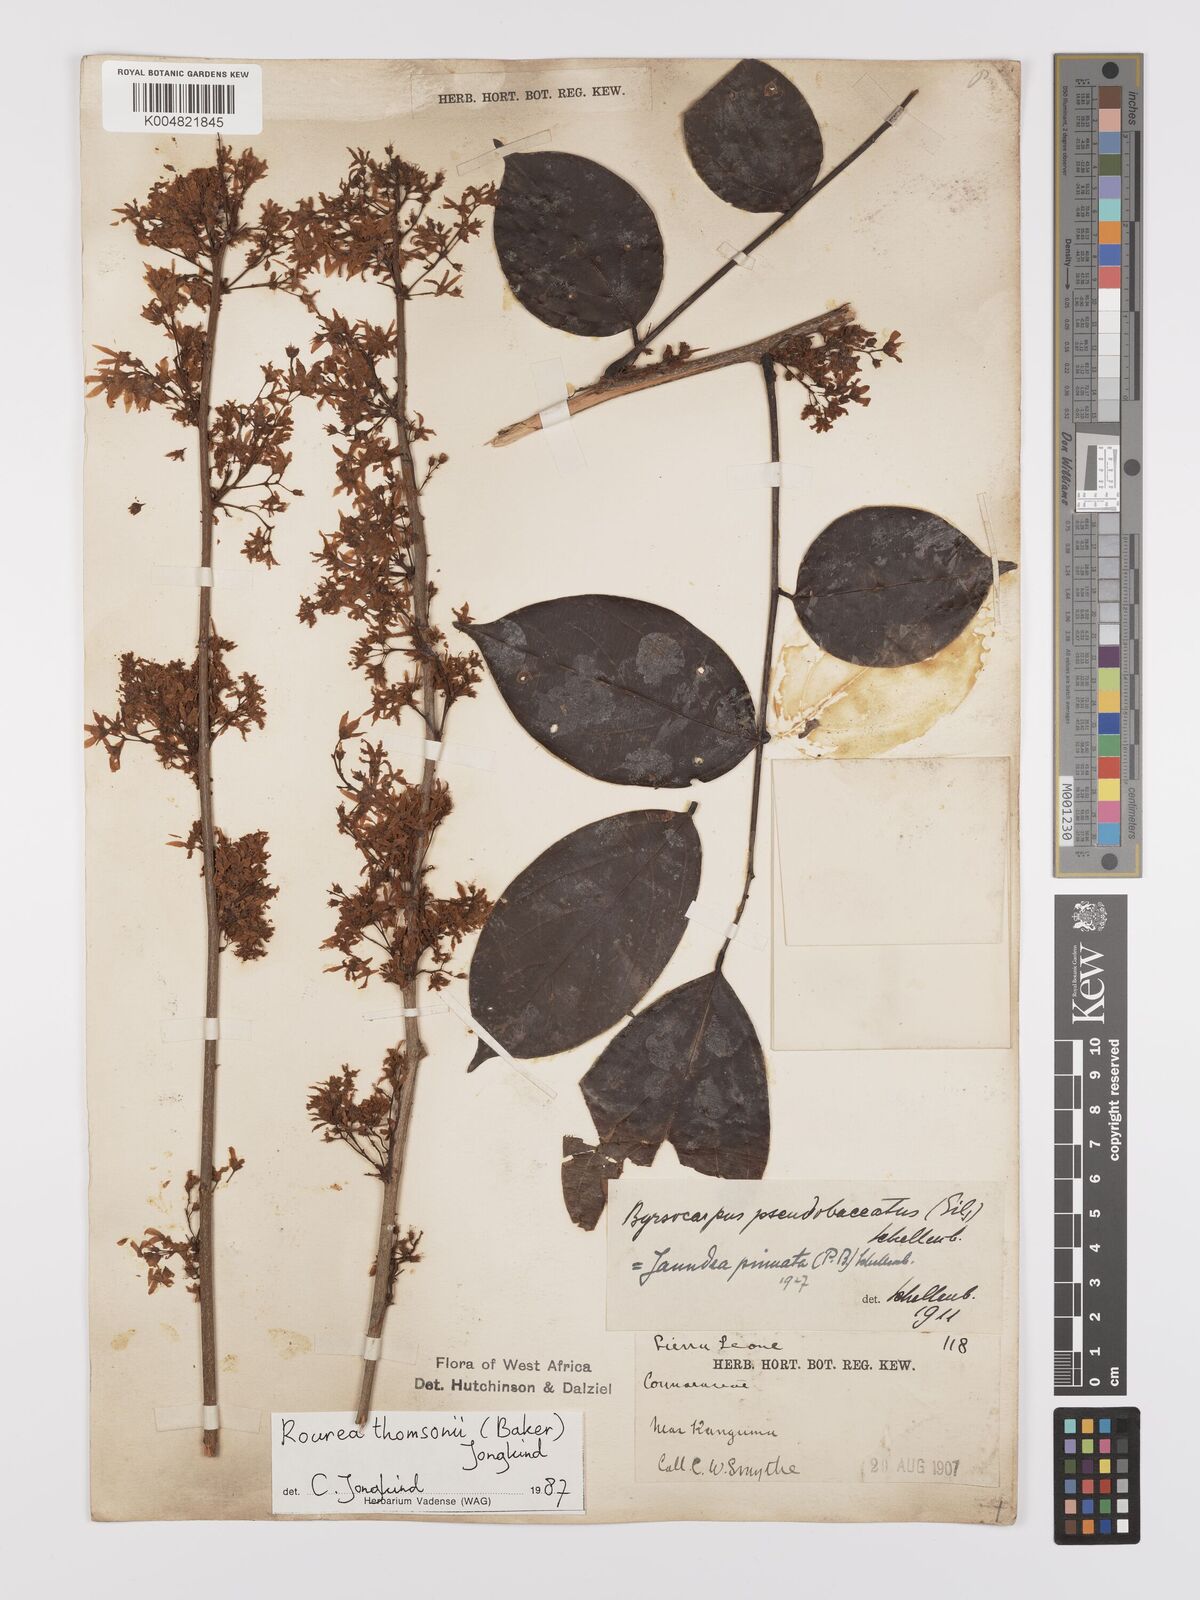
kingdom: Plantae
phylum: Tracheophyta
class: Magnoliopsida
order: Oxalidales
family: Connaraceae
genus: Rourea
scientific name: Rourea pinnata
